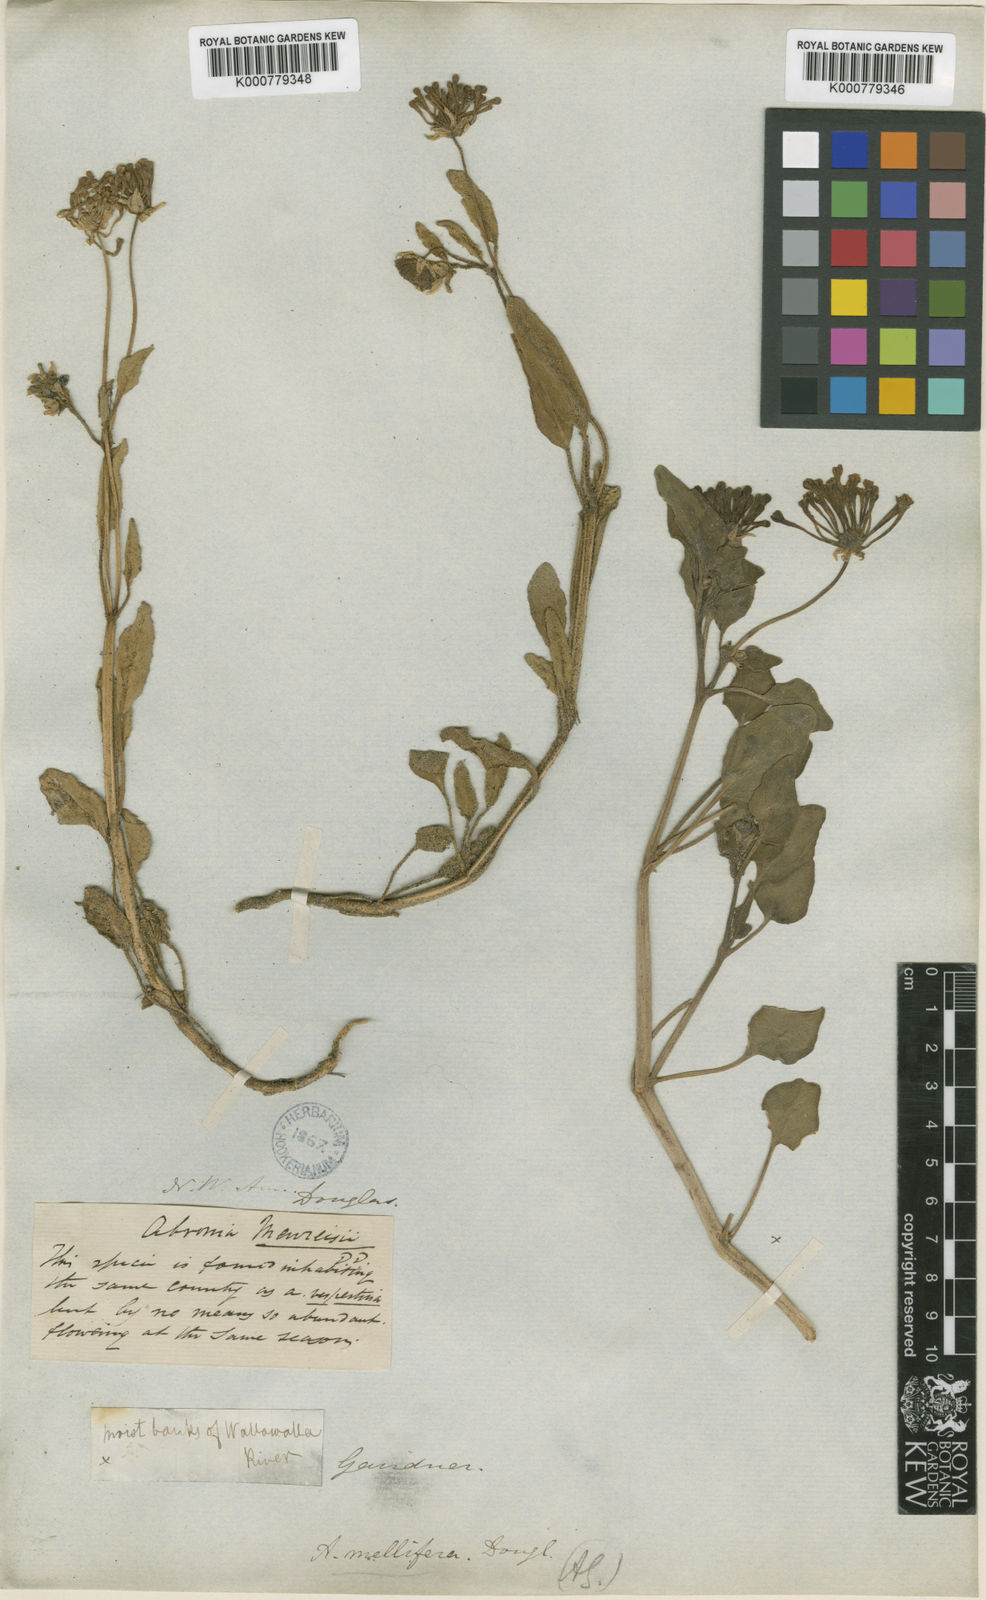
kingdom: Plantae
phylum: Tracheophyta
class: Magnoliopsida
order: Caryophyllales
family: Nyctaginaceae
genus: Abronia
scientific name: Abronia
